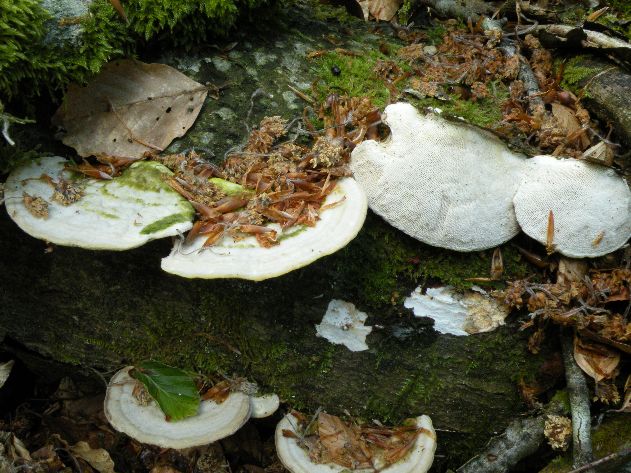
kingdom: Fungi
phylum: Basidiomycota
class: Agaricomycetes
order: Polyporales
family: Polyporaceae
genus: Trametes
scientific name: Trametes gibbosa
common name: puklet læderporesvamp
